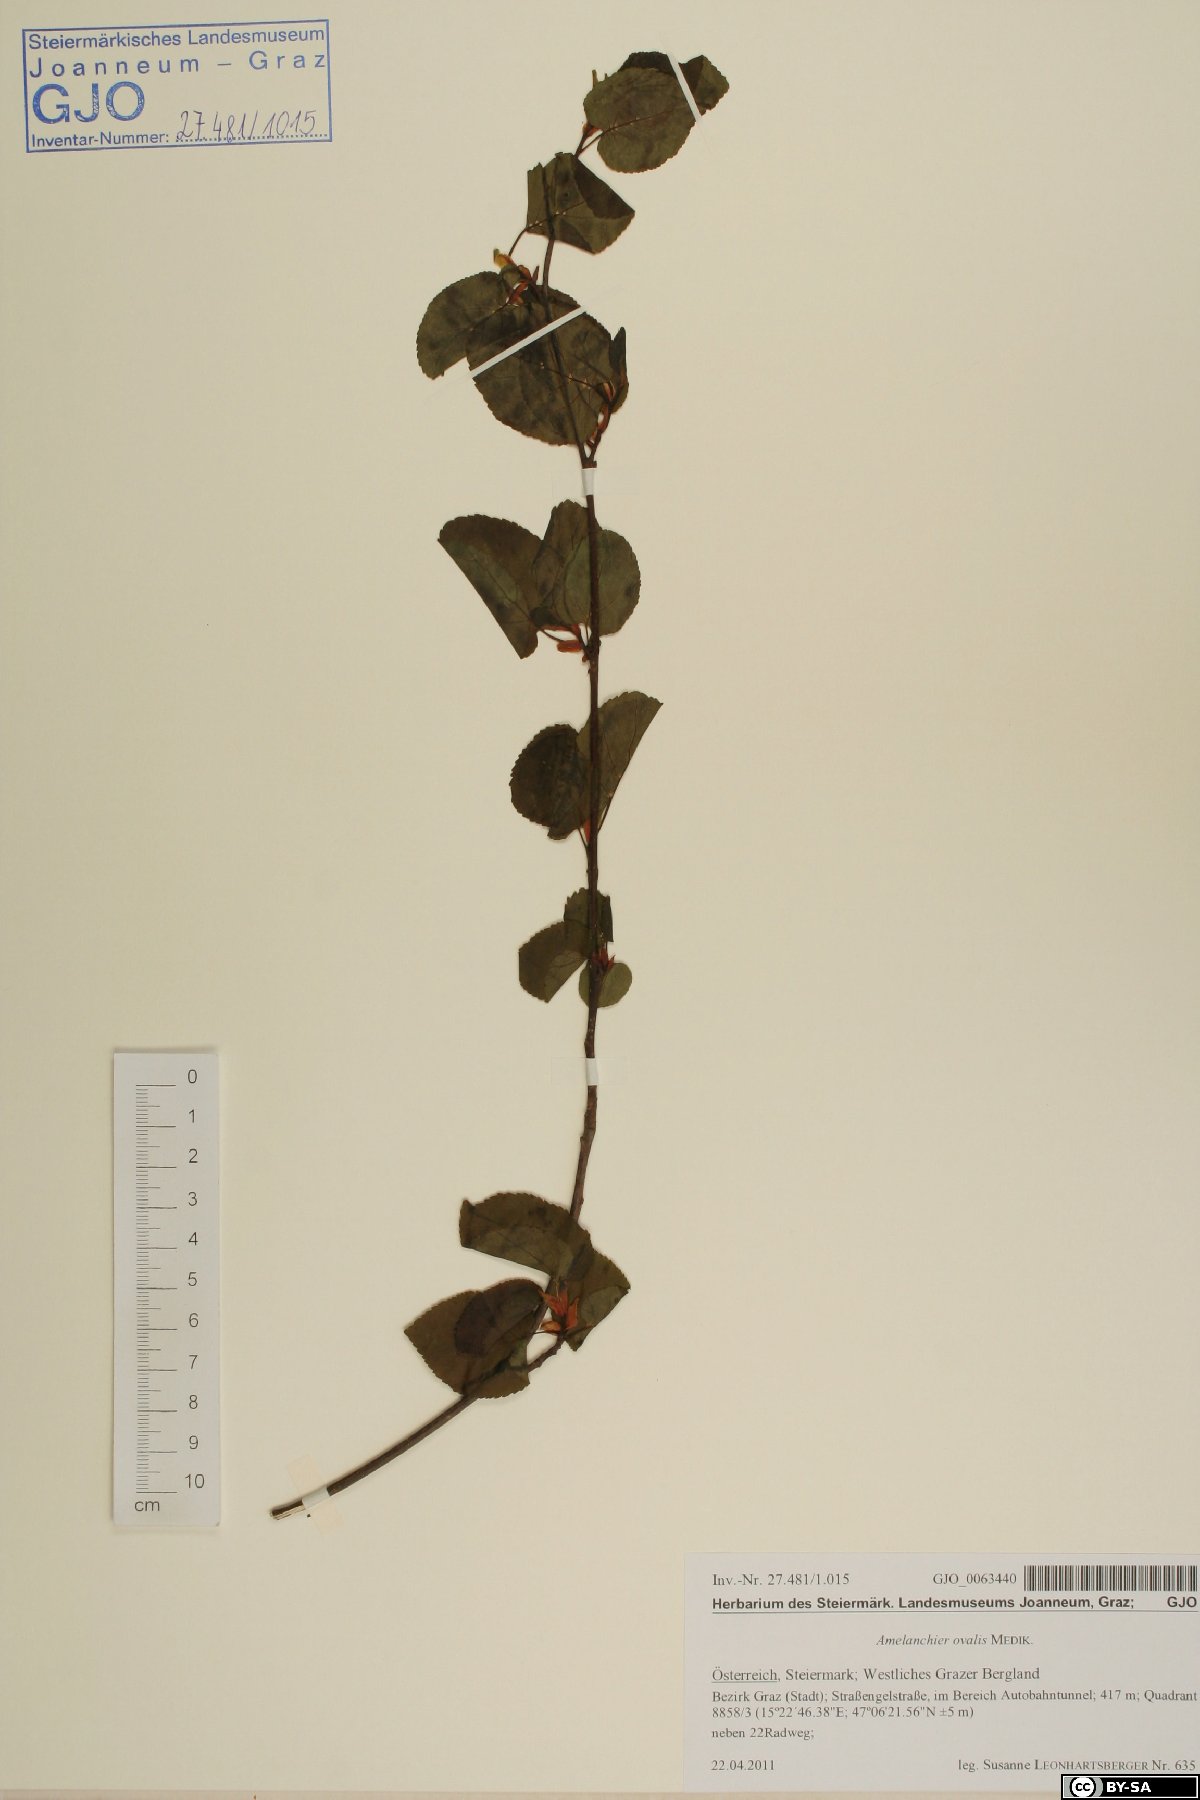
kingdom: Plantae
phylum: Tracheophyta
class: Magnoliopsida
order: Rosales
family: Rosaceae
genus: Amelanchier
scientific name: Amelanchier ovalis
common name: Serviceberry
